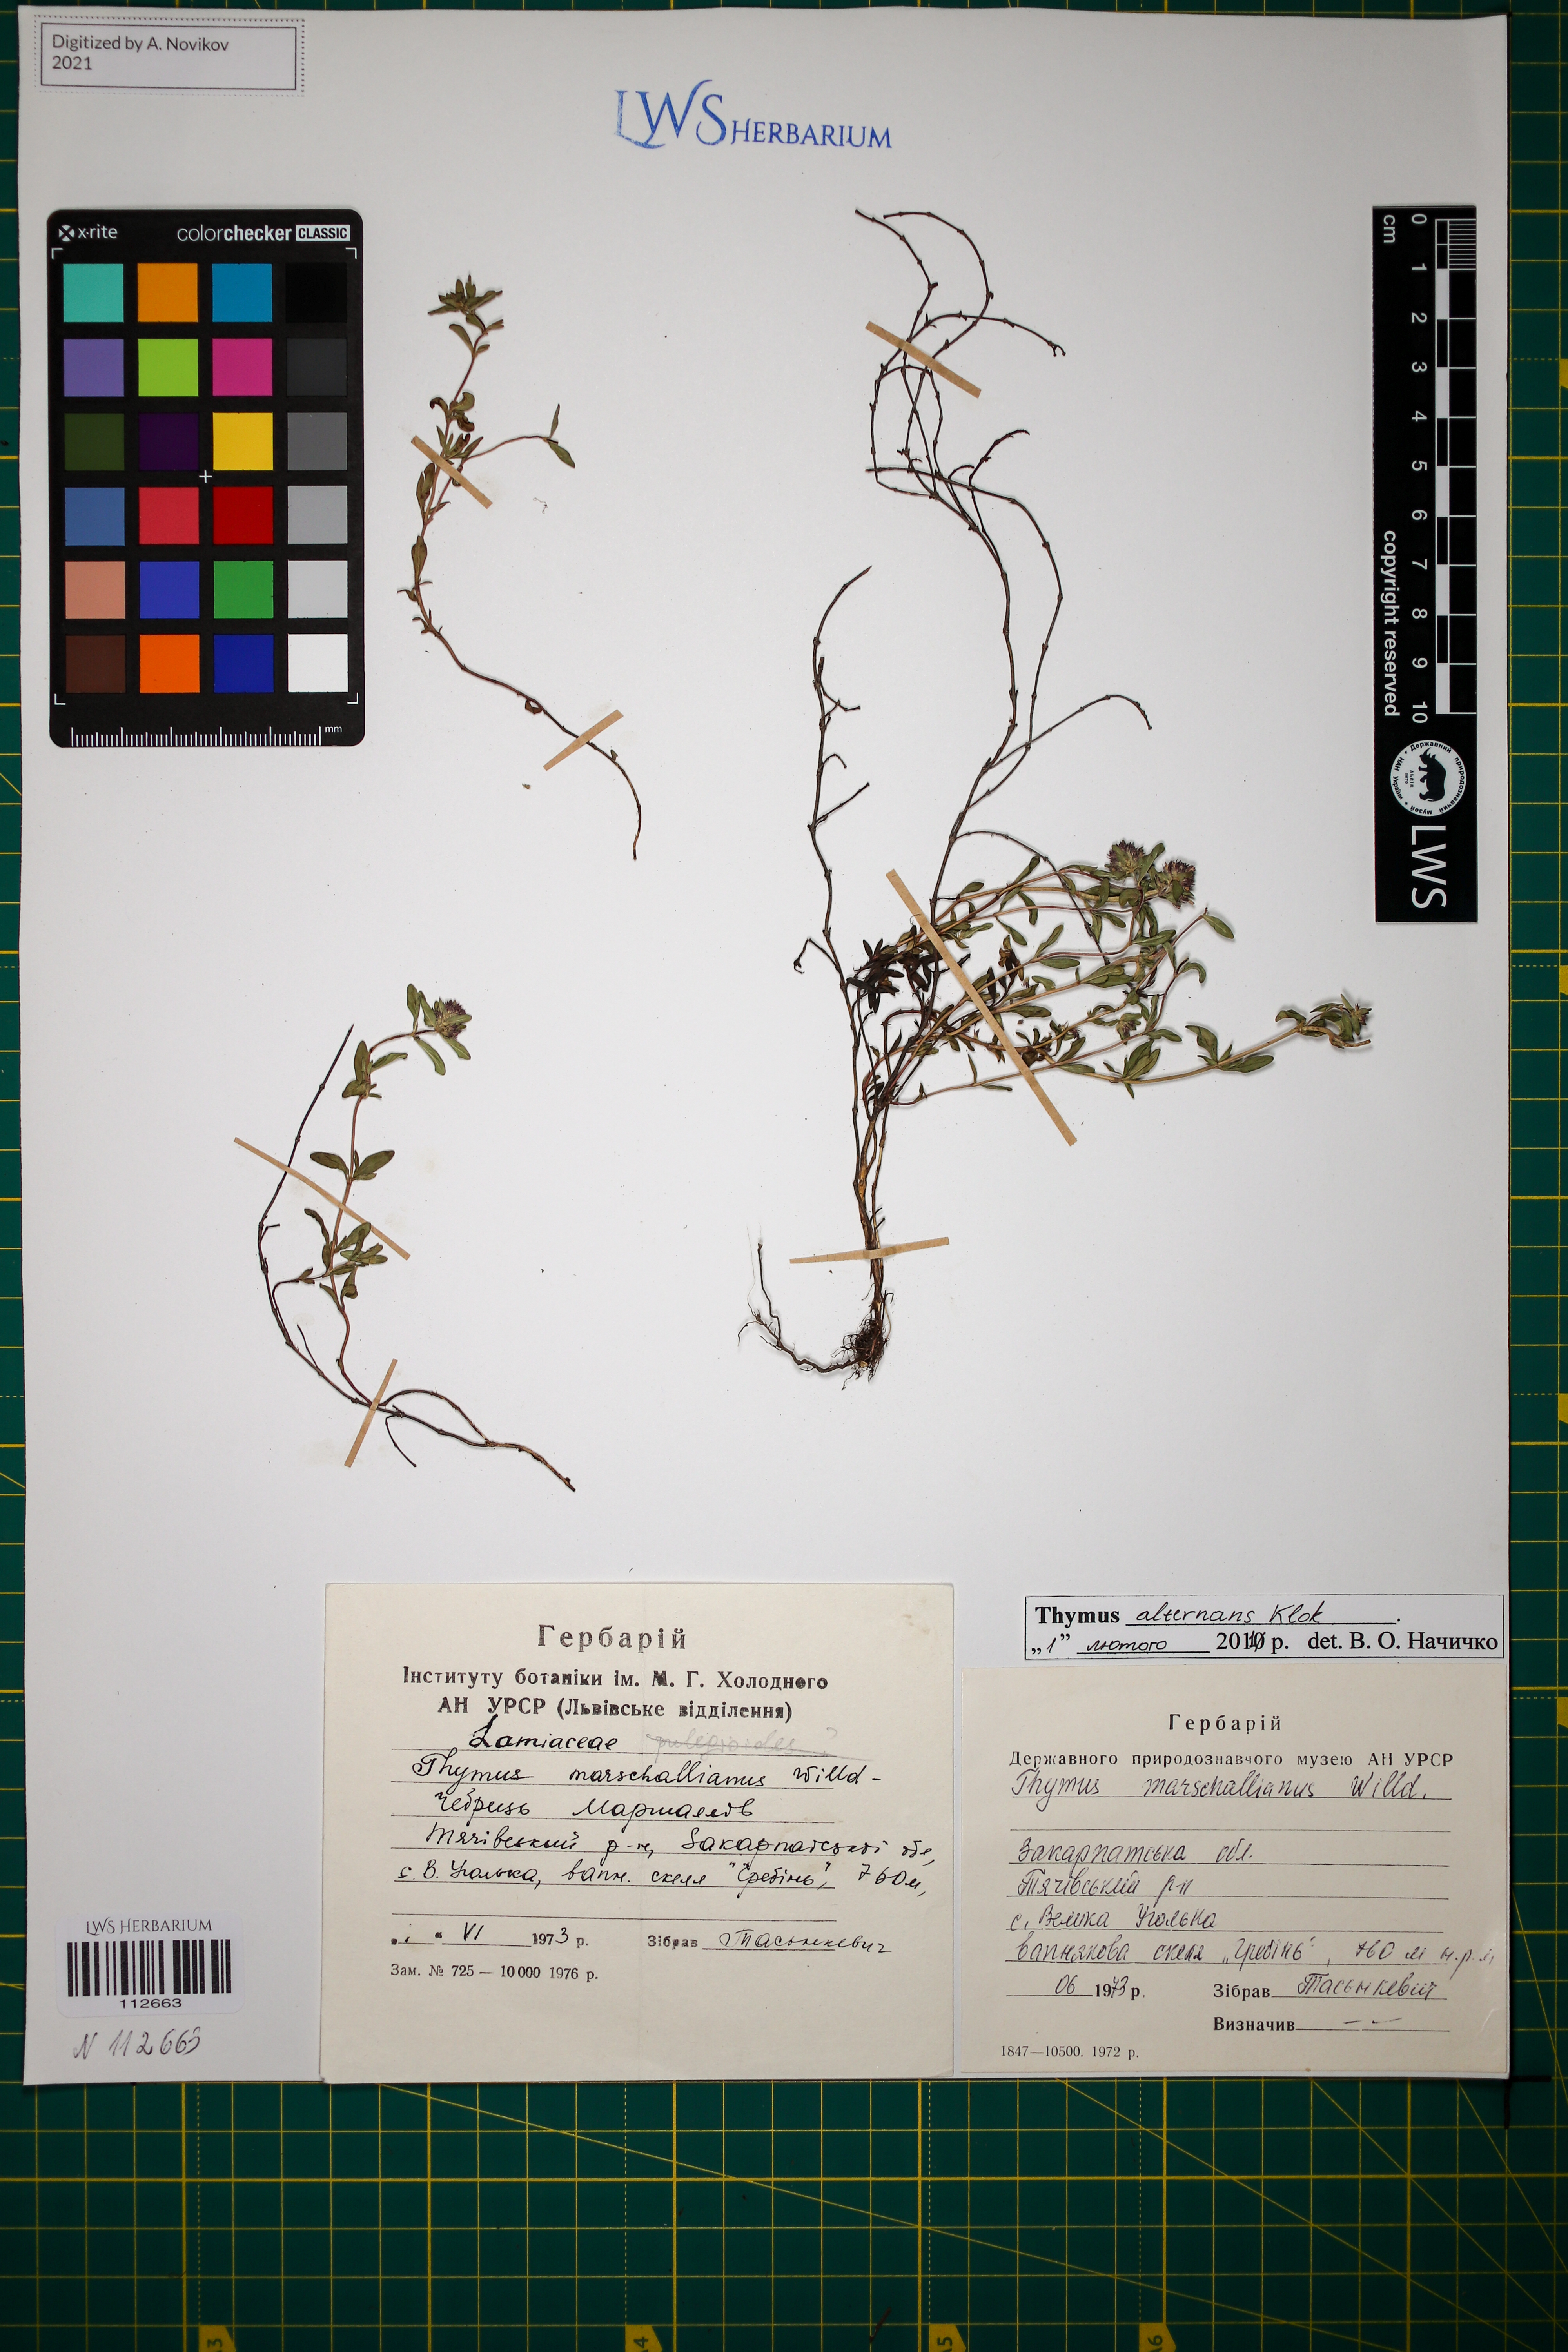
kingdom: Plantae
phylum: Tracheophyta
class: Magnoliopsida
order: Lamiales
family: Lamiaceae
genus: Thymus
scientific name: Thymus alternans
